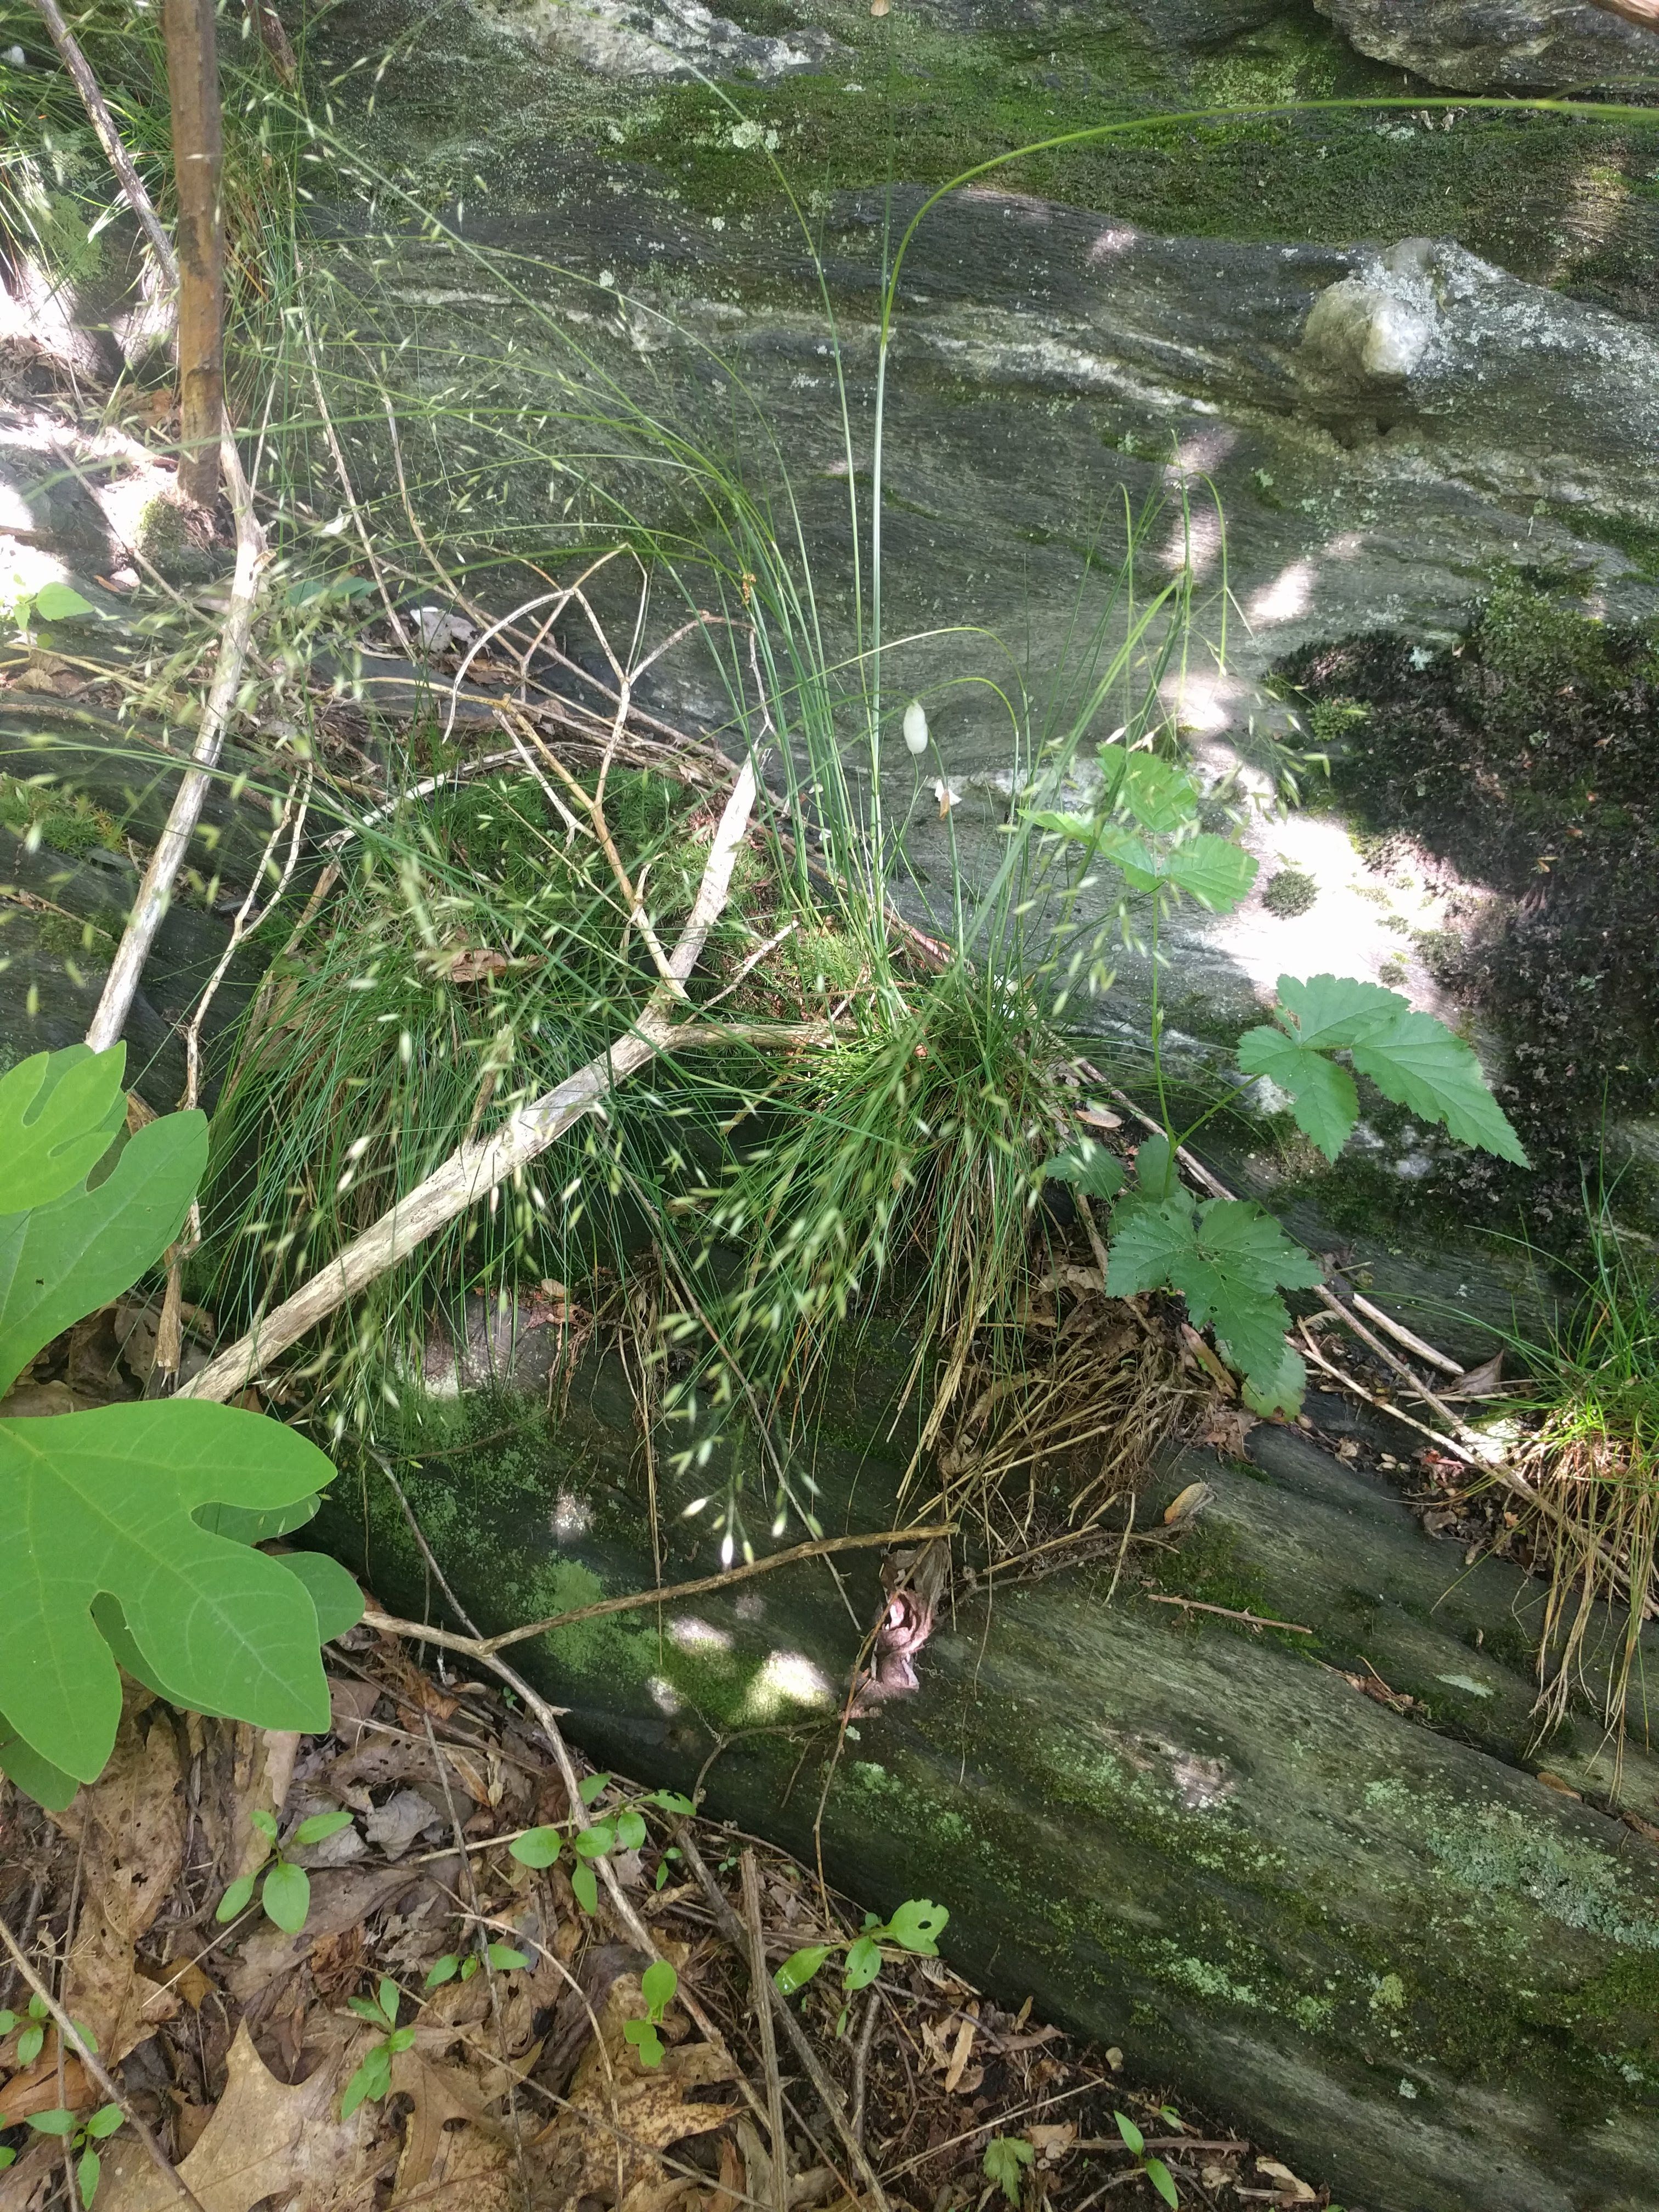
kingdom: Plantae
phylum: Tracheophyta
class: Liliopsida
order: Poales
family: Cyperaceae
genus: Carex
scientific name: Carex laxiculmis
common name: Spreading sedge
